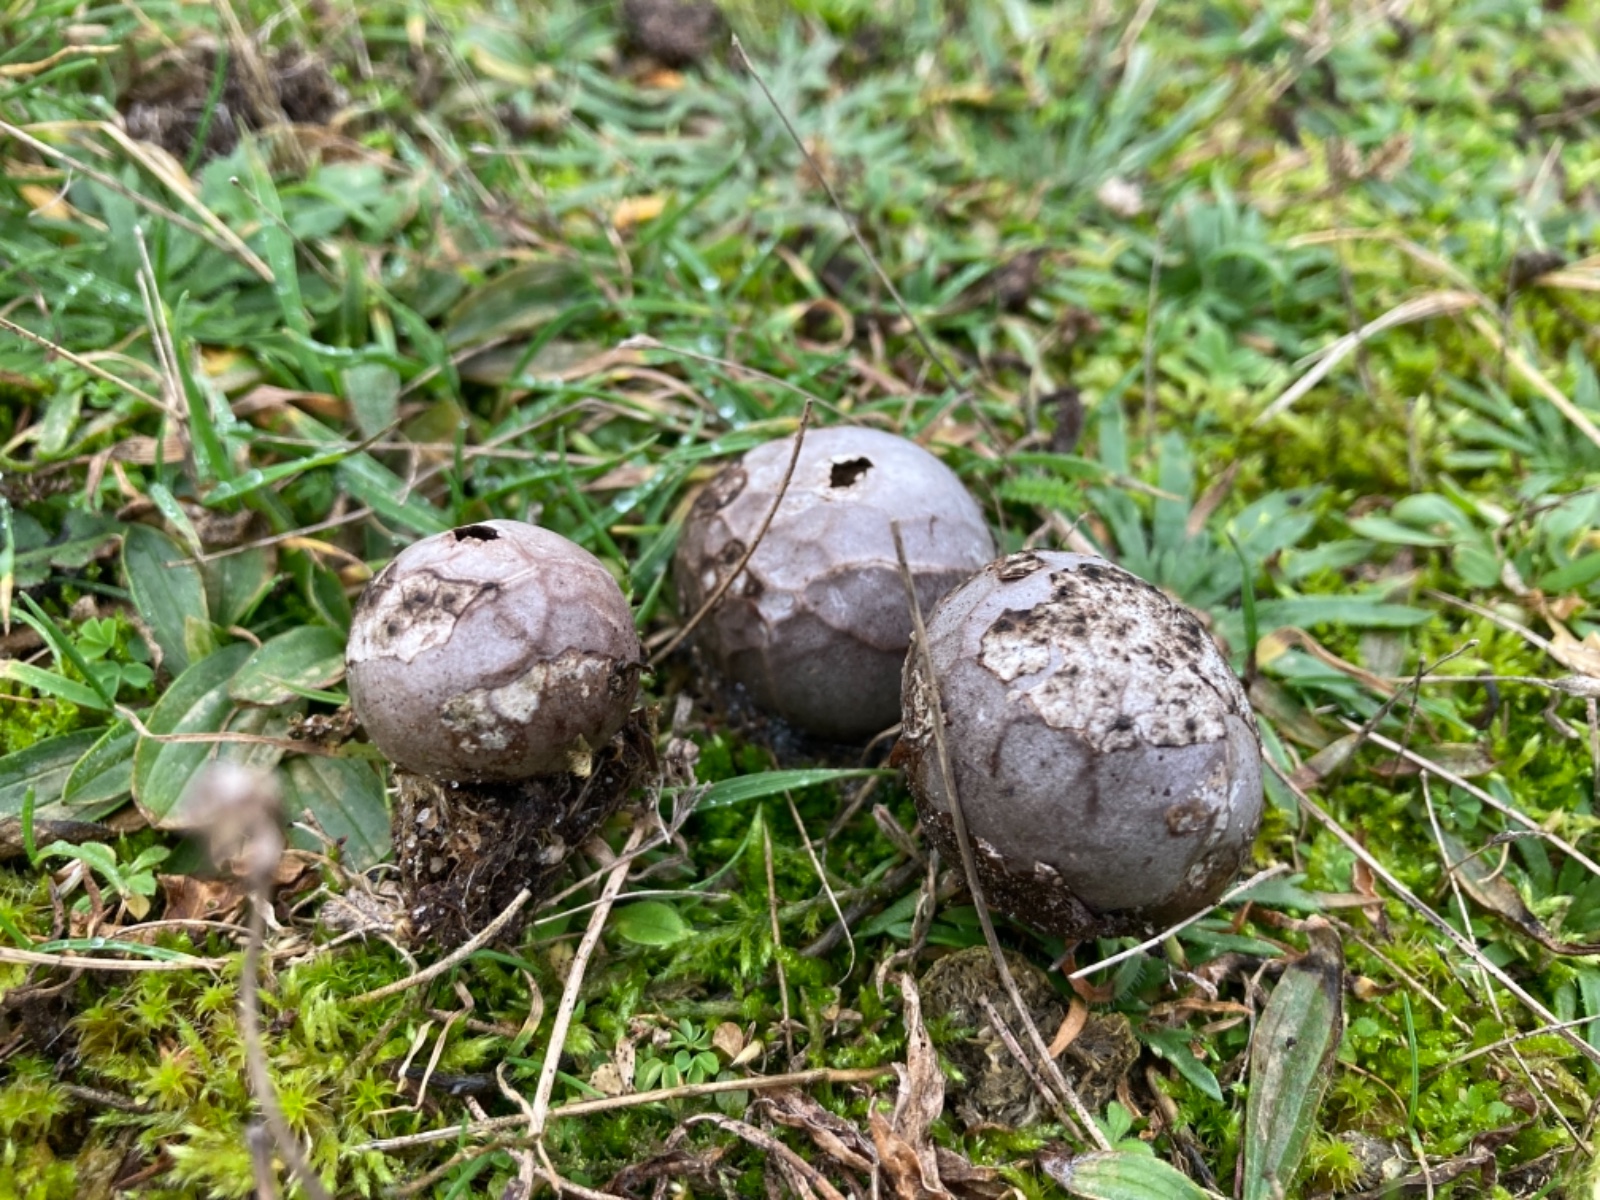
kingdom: Fungi
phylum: Basidiomycota
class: Agaricomycetes
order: Agaricales
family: Lycoperdaceae
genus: Bovista
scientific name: Bovista plumbea
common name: blygrå bovist
